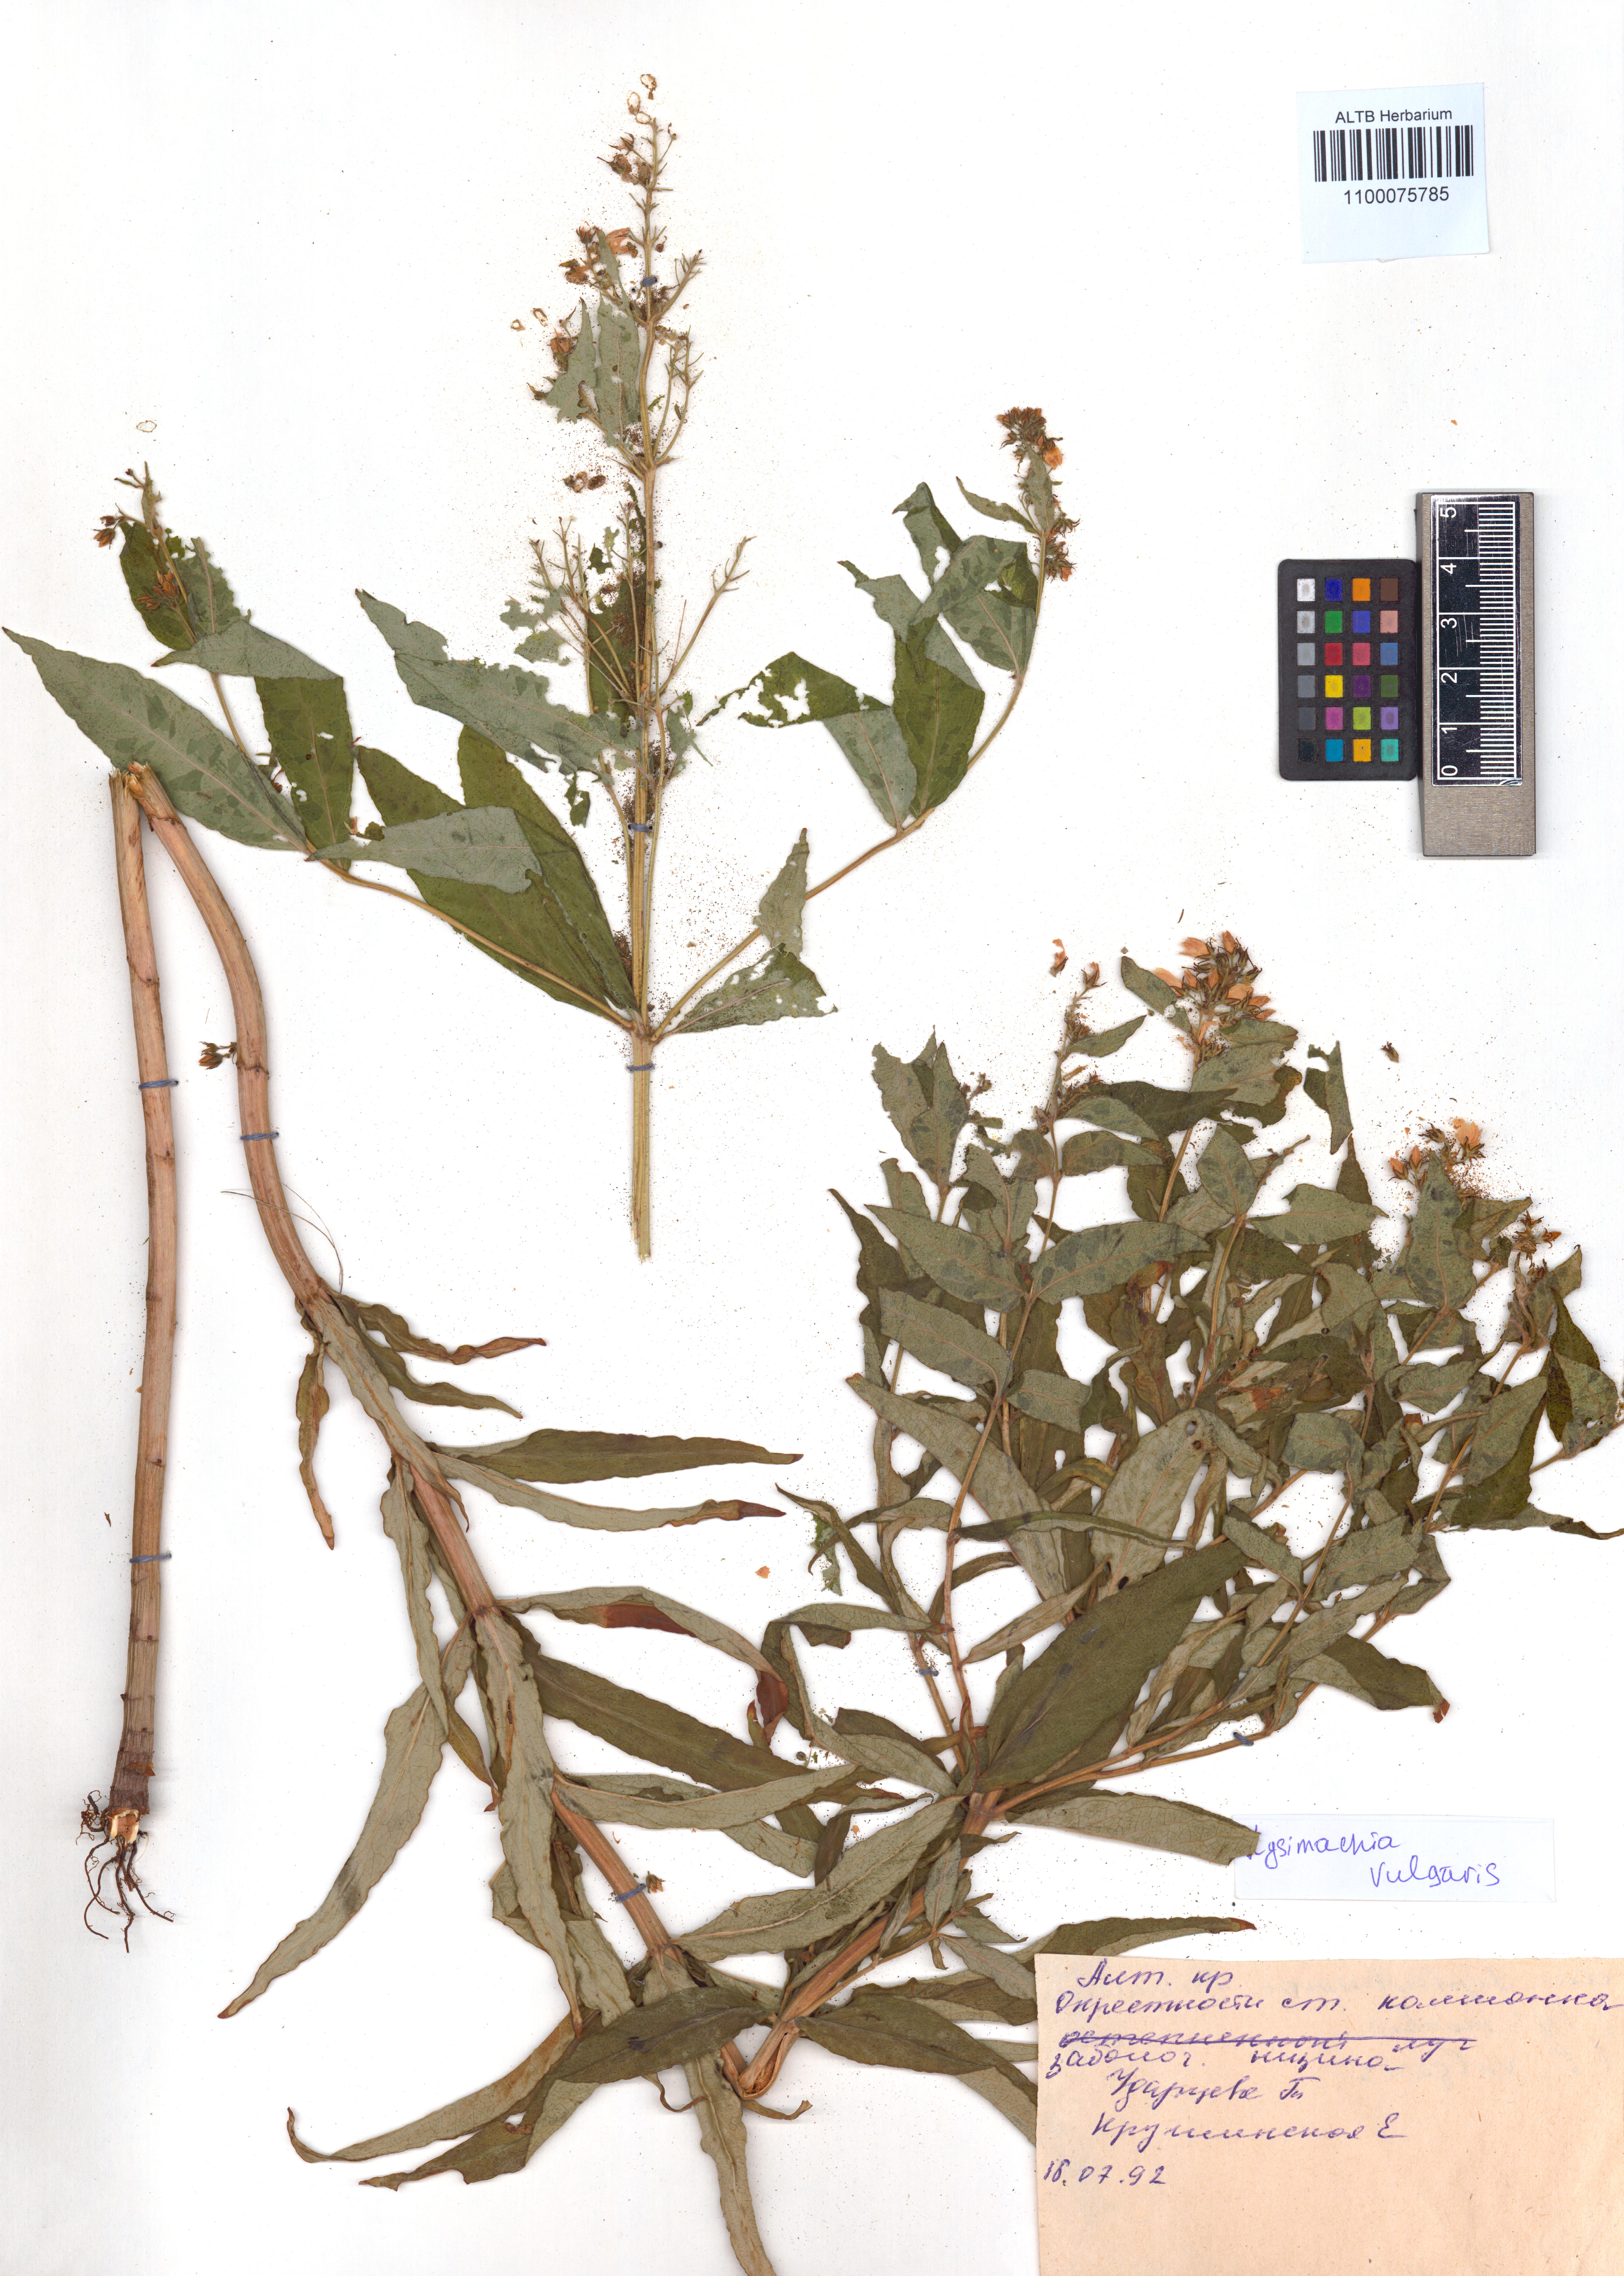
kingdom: Plantae
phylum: Tracheophyta
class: Magnoliopsida
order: Ericales
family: Primulaceae
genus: Lysimachia
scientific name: Lysimachia vulgaris
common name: Yellow loosestrife
